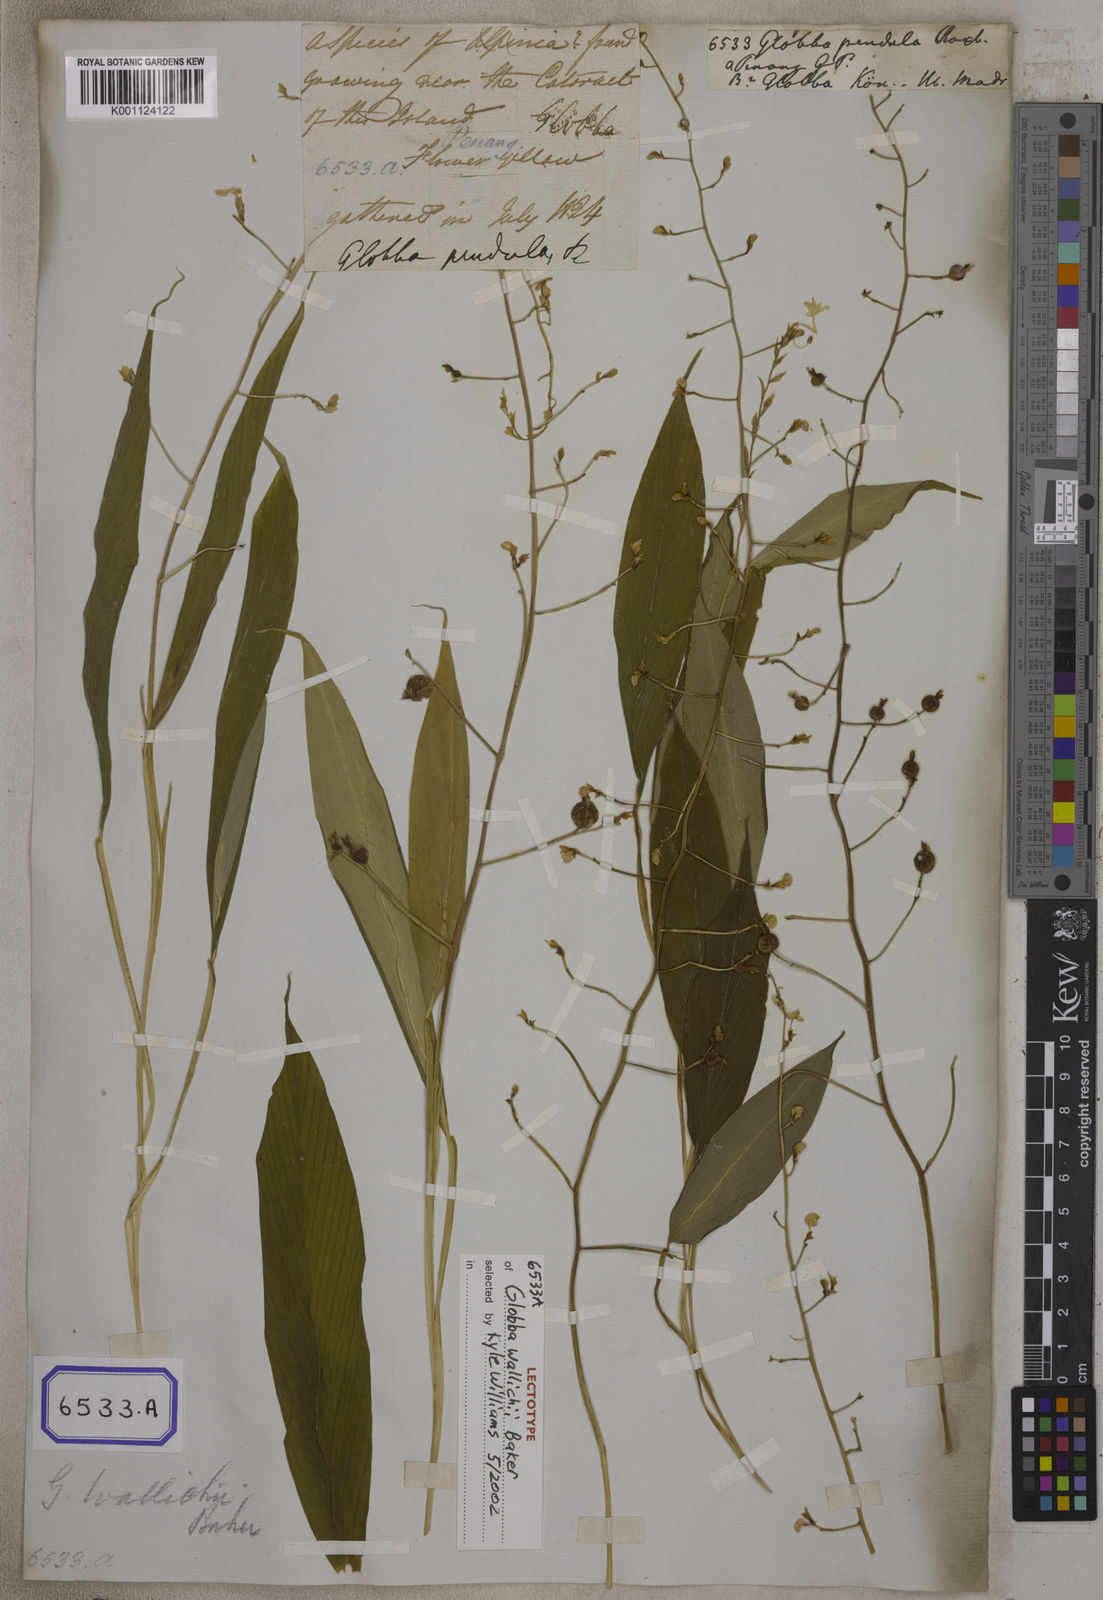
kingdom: Plantae
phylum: Tracheophyta
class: Liliopsida
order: Zingiberales
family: Zingiberaceae
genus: Globba
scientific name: Globba pendula
